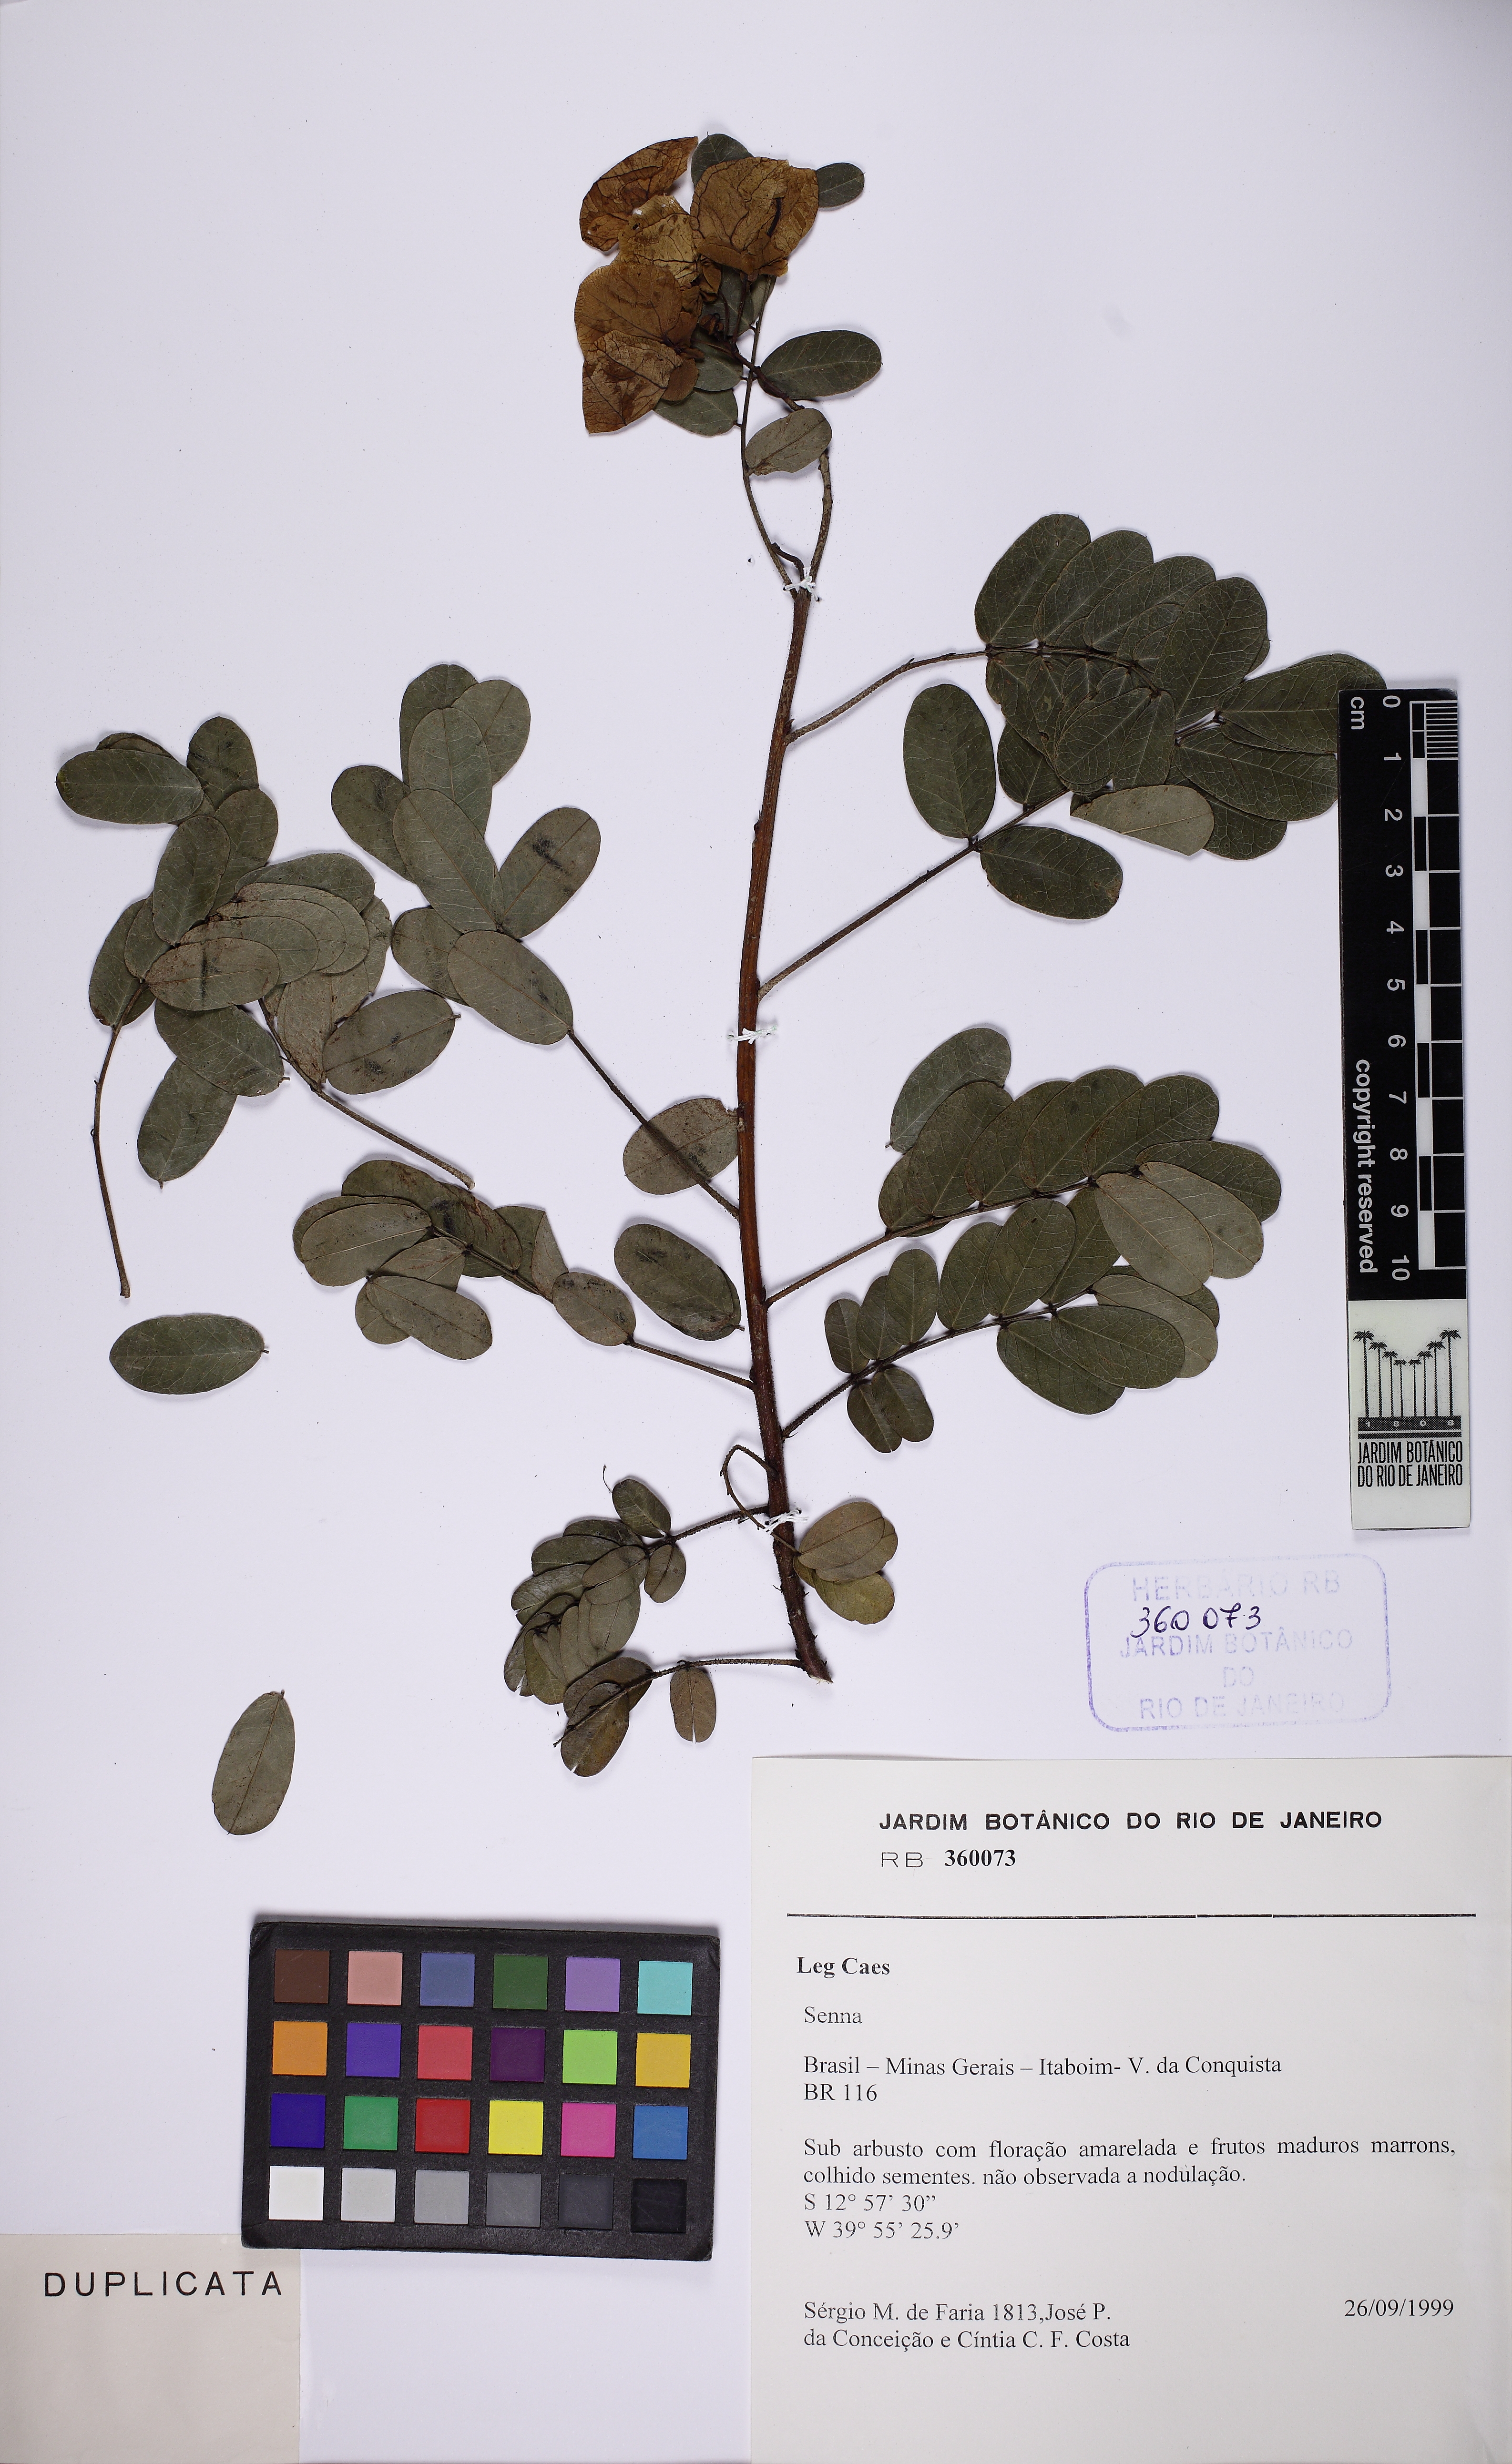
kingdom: Plantae
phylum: Tracheophyta
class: Magnoliopsida
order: Fabales
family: Fabaceae
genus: Senna
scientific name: Senna catingae
